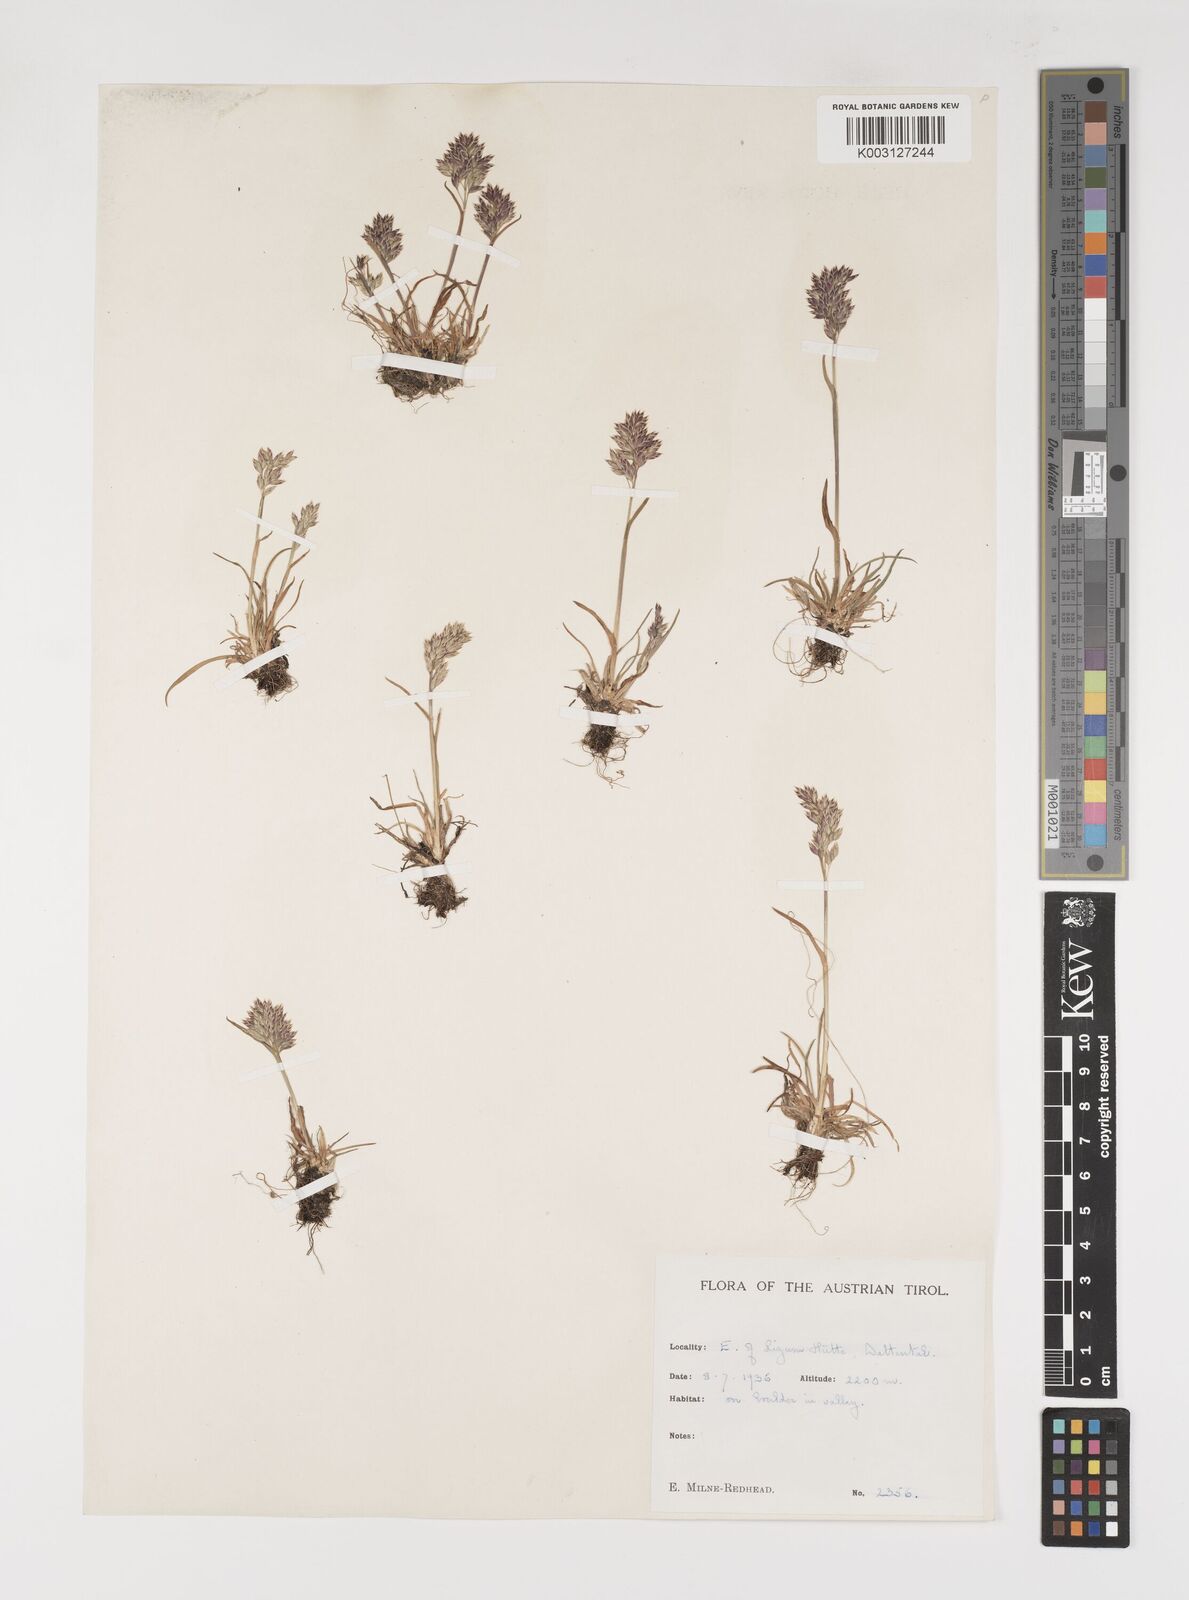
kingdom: Plantae
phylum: Tracheophyta
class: Liliopsida
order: Poales
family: Poaceae
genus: Poa
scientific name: Poa alpina
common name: Alpine bluegrass
